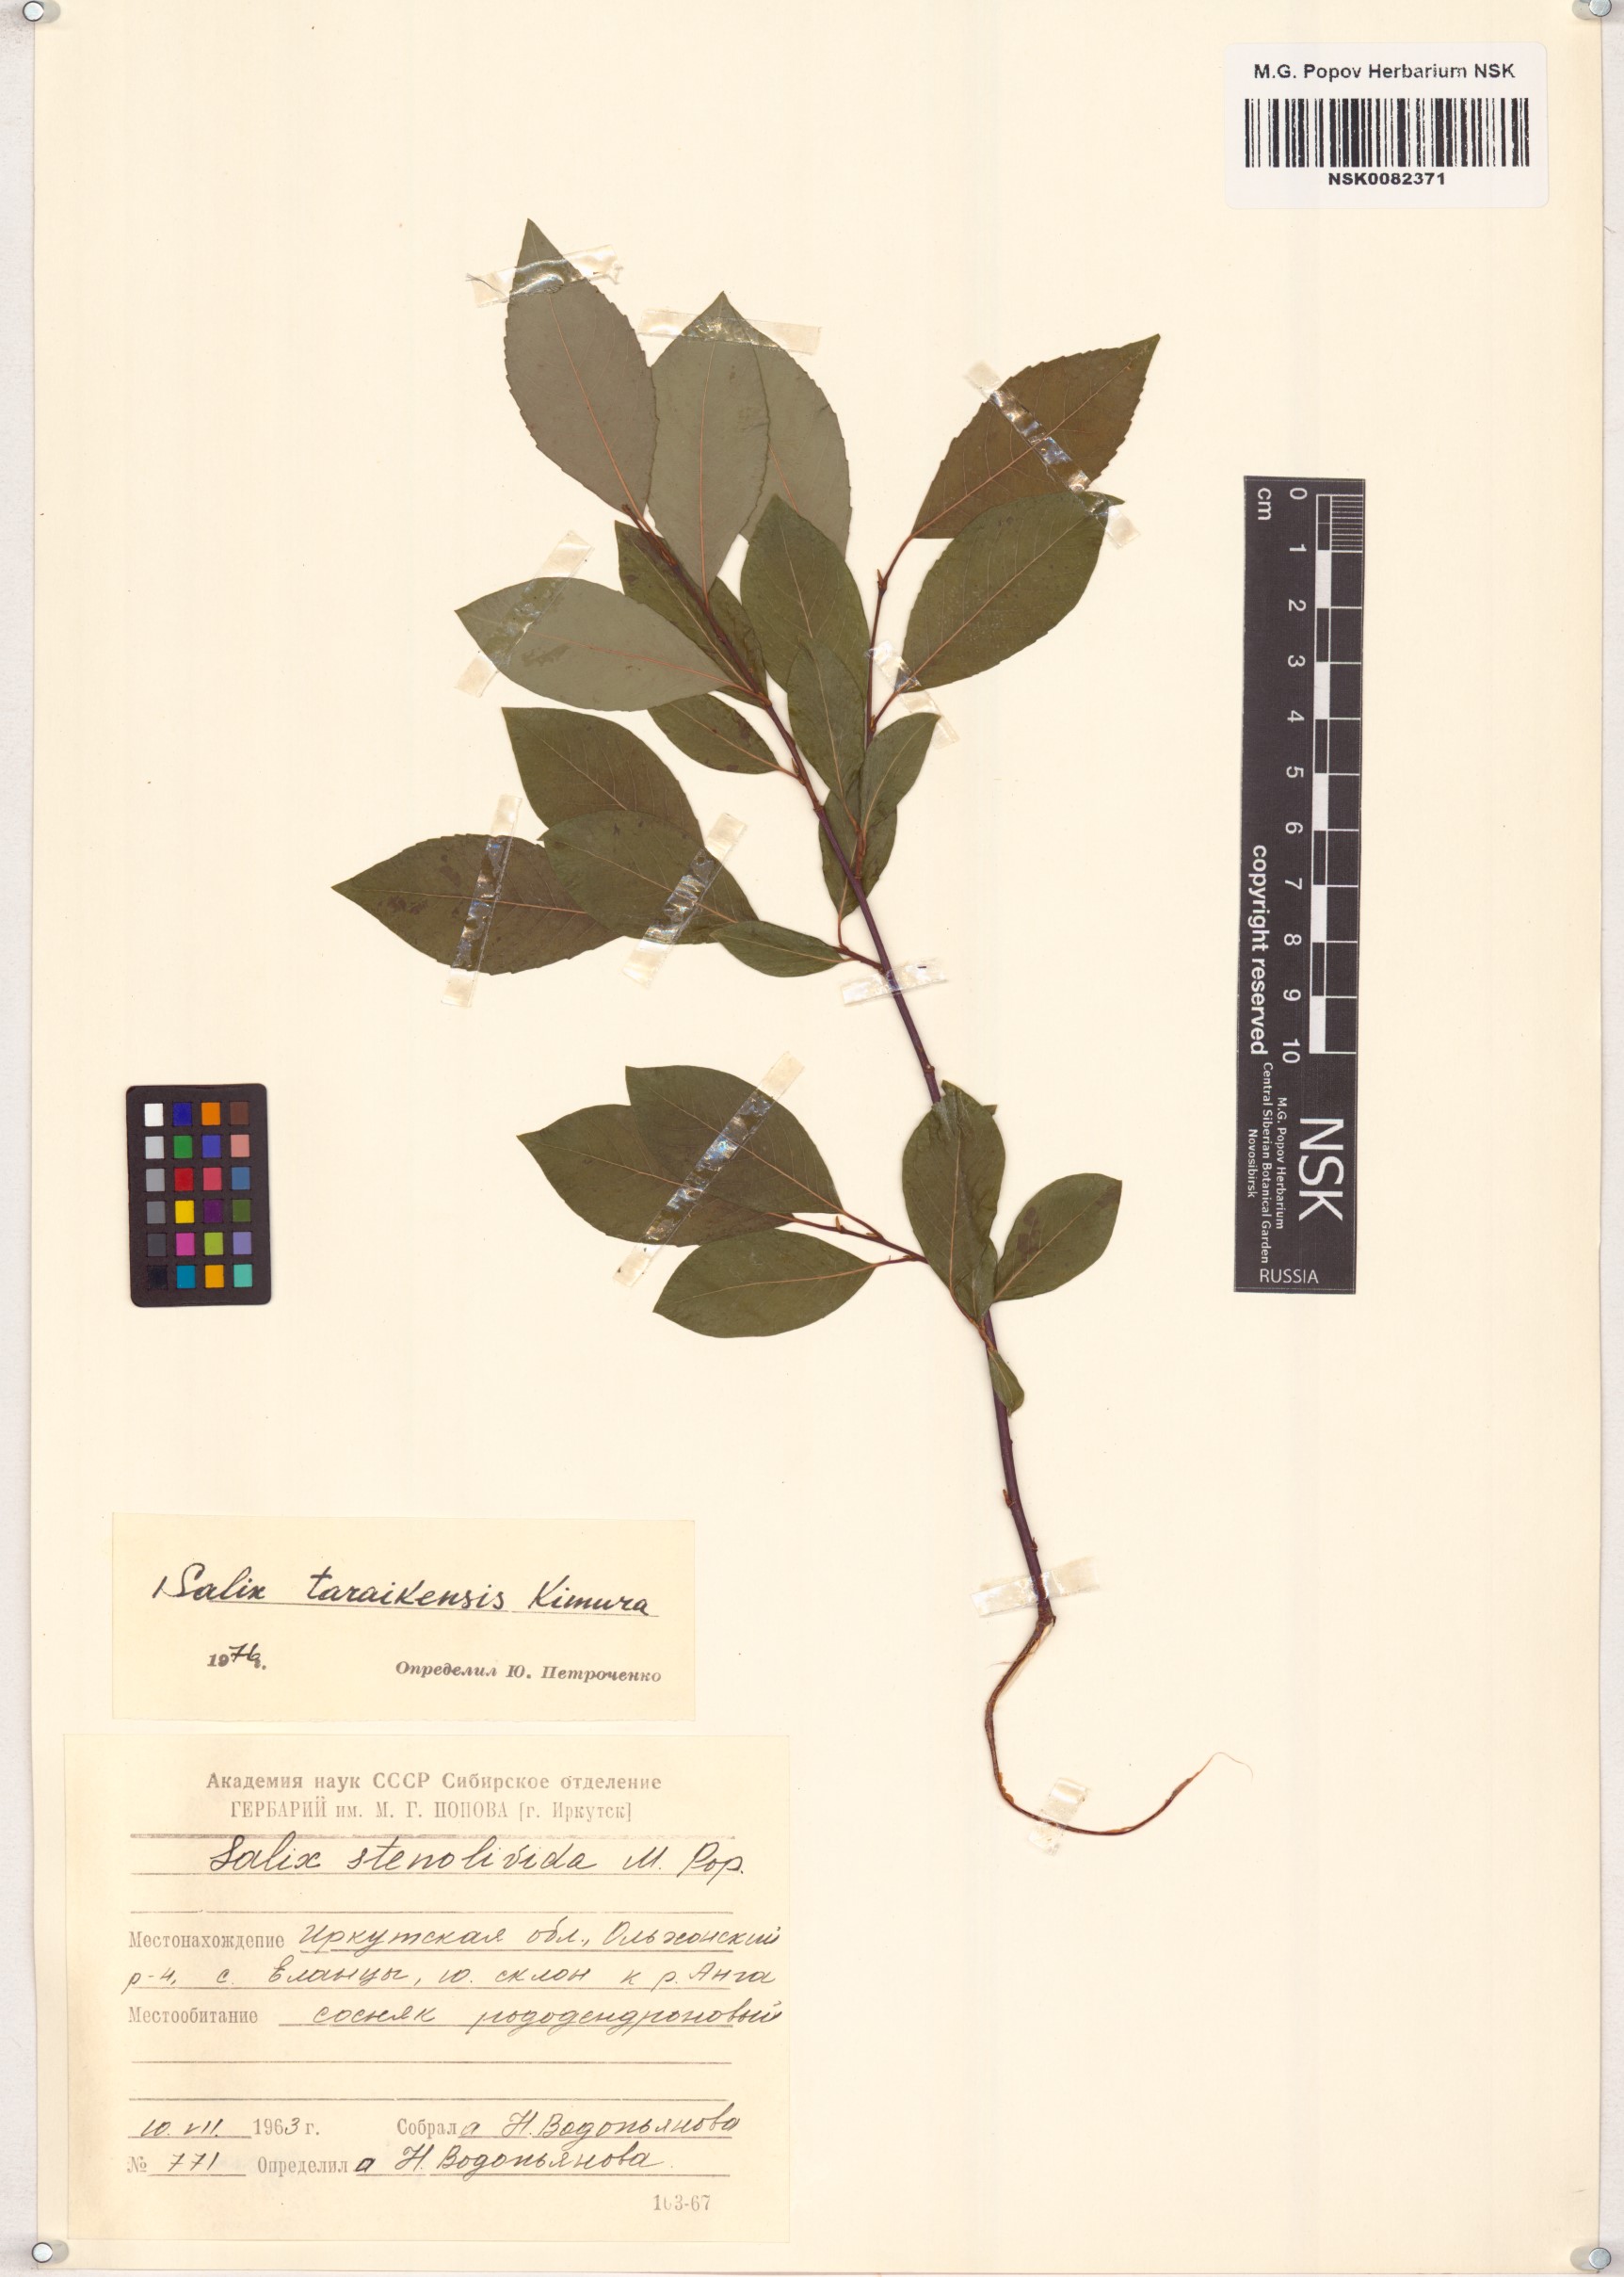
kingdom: Plantae
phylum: Tracheophyta
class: Magnoliopsida
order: Malpighiales
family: Salicaceae
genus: Salix
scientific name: Salix taraikensis
